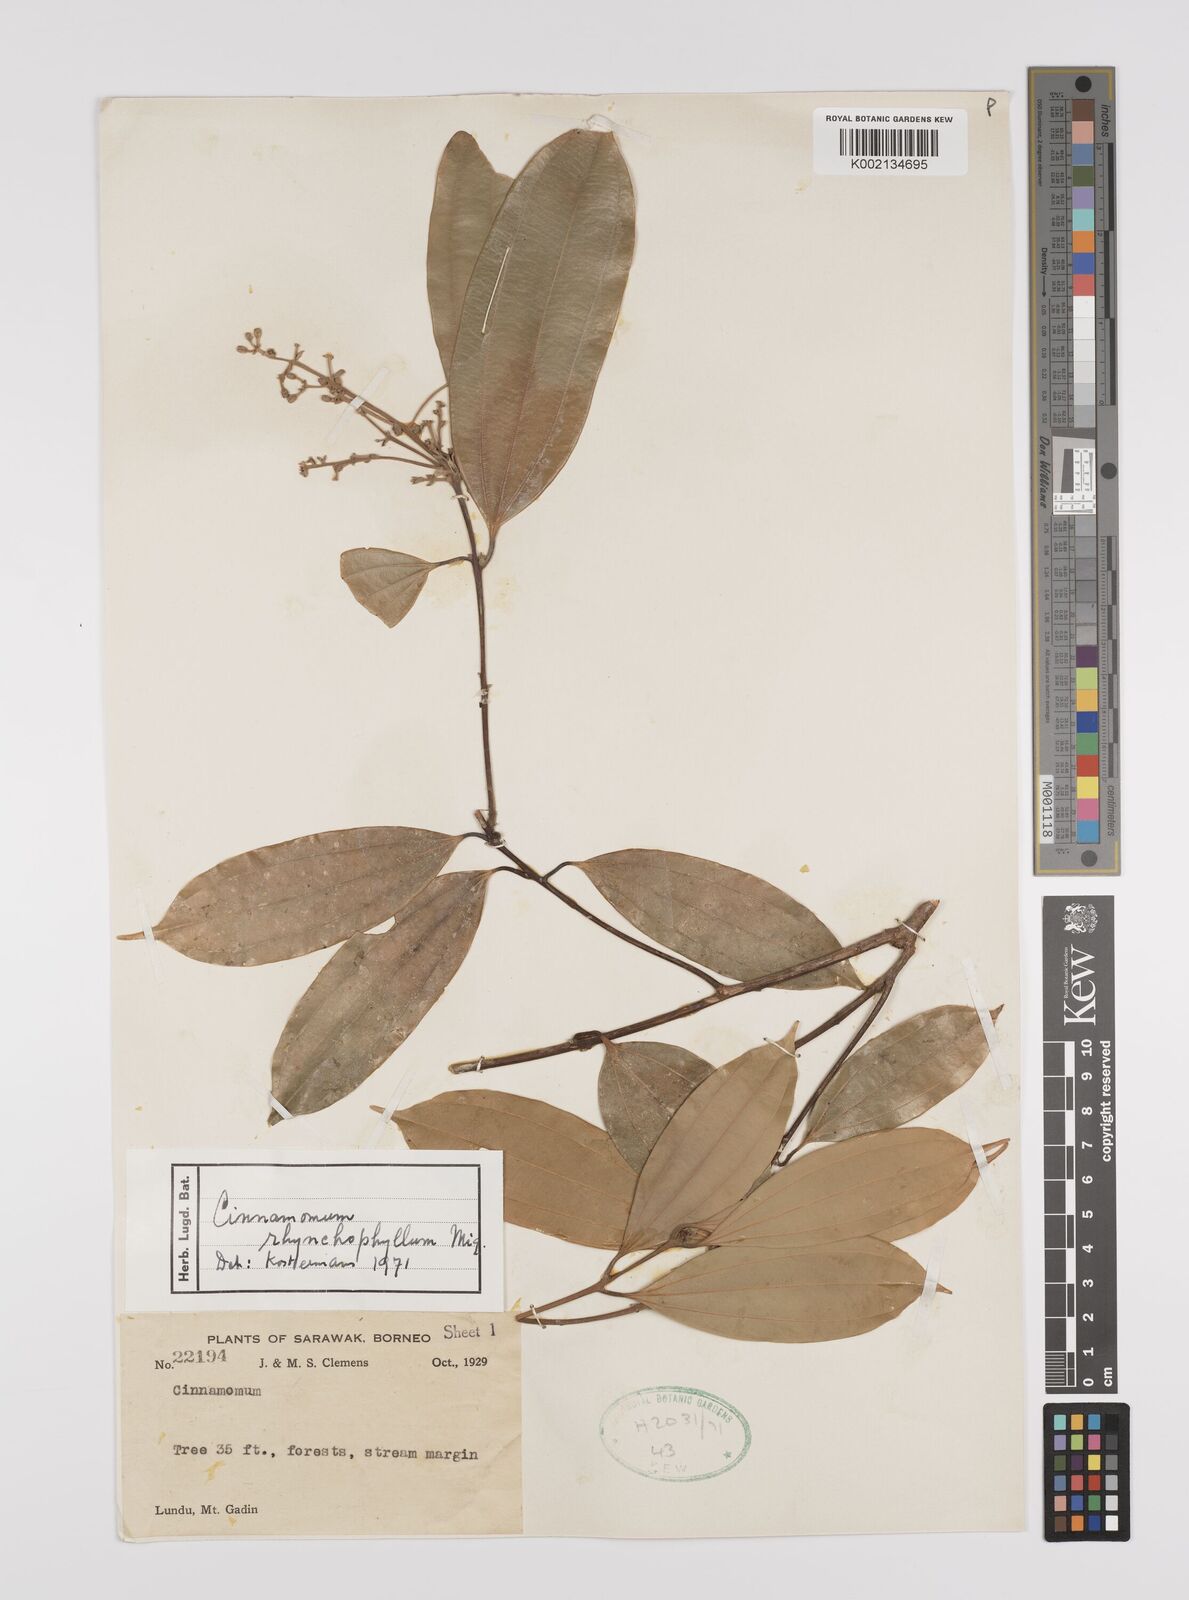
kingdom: Plantae
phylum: Tracheophyta
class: Magnoliopsida
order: Laurales
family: Lauraceae
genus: Cinnamomum
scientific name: Cinnamomum rhynchophyllum
